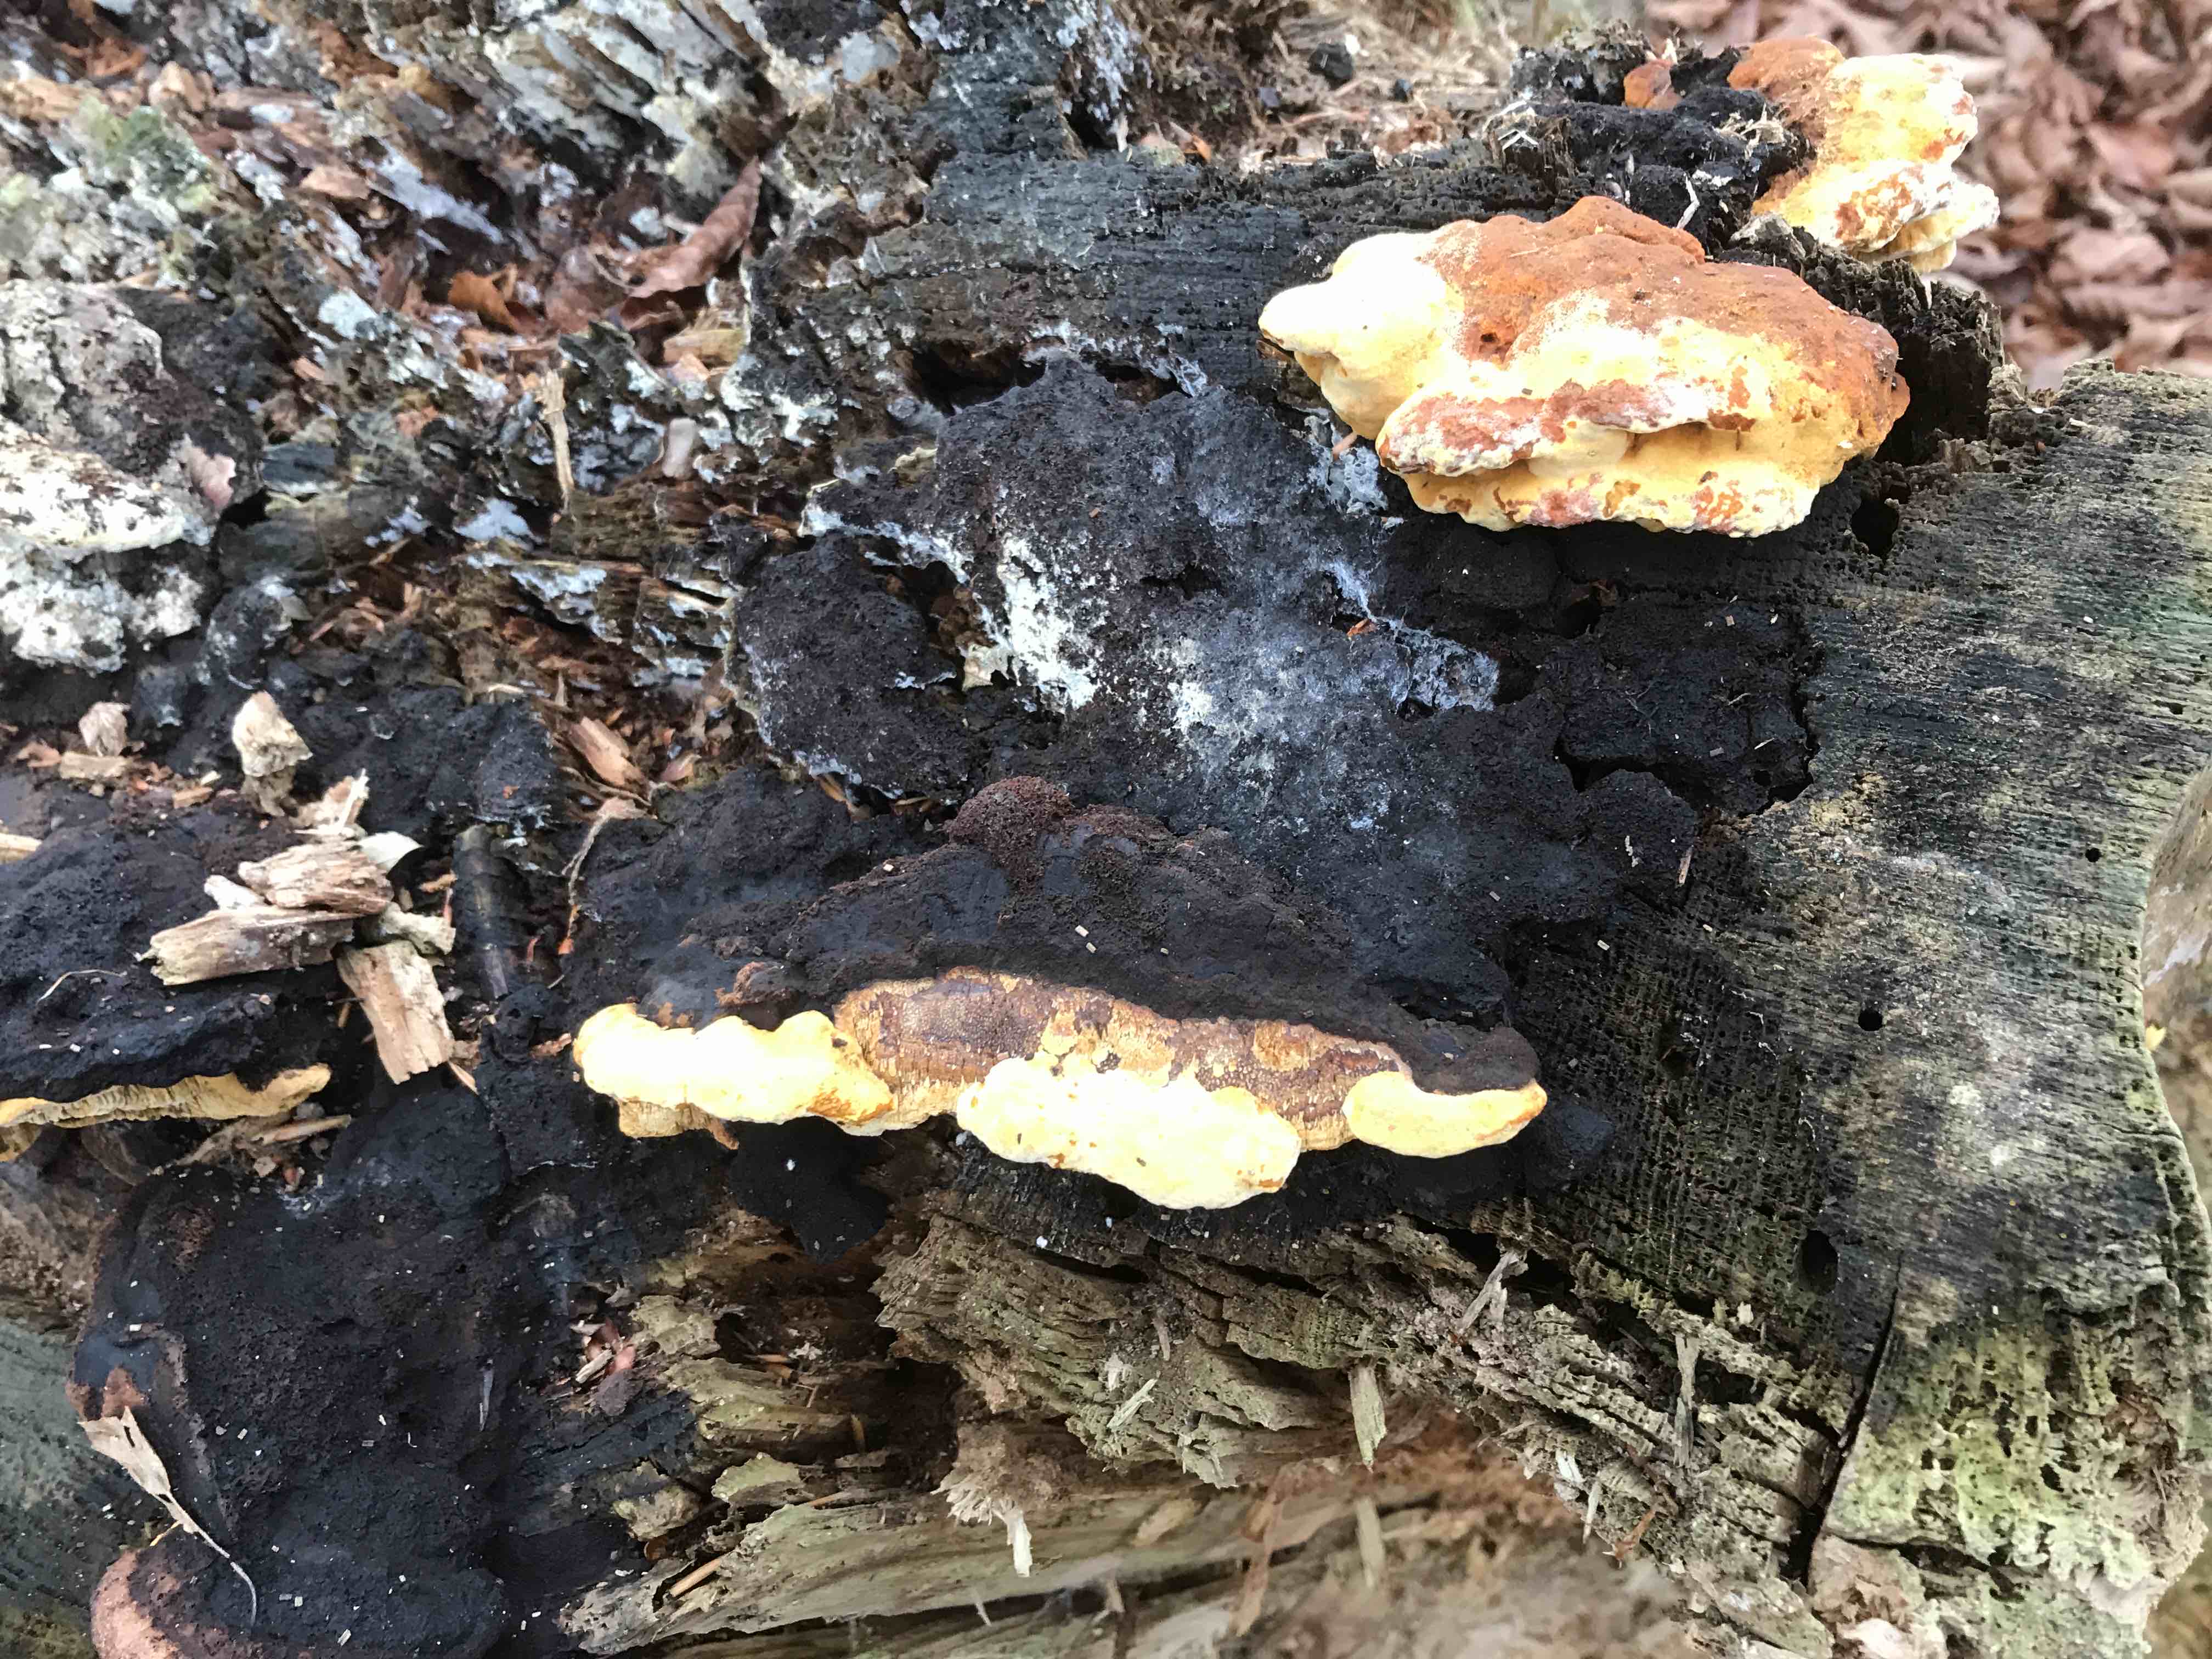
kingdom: Fungi
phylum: Basidiomycota
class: Agaricomycetes
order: Gloeophyllales
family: Gloeophyllaceae
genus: Gloeophyllum
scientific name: Gloeophyllum odoratum
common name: duftende korkhat
